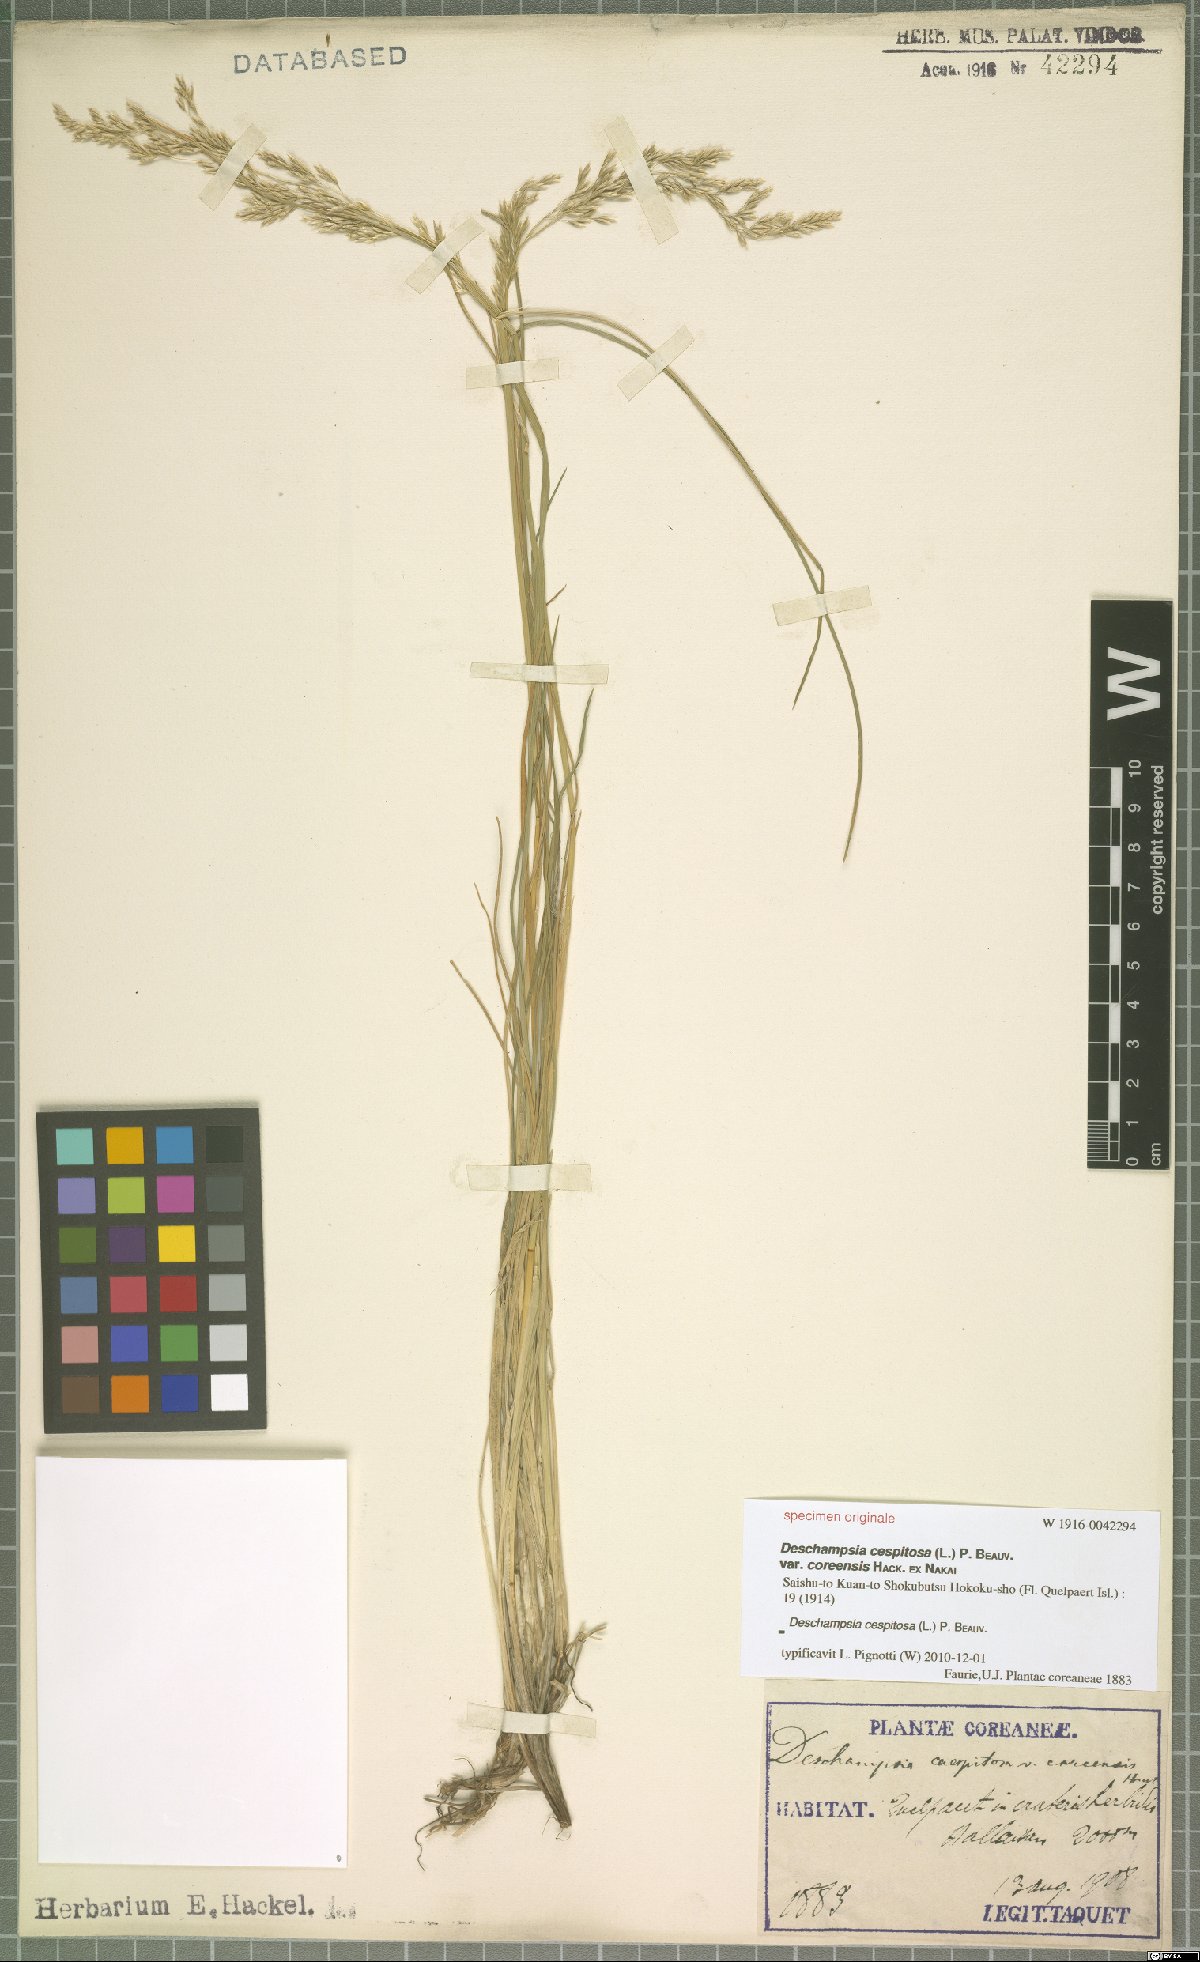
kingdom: Plantae
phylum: Tracheophyta
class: Liliopsida
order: Poales
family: Poaceae
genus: Deschampsia
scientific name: Deschampsia cespitosa
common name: Tufted hair-grass
